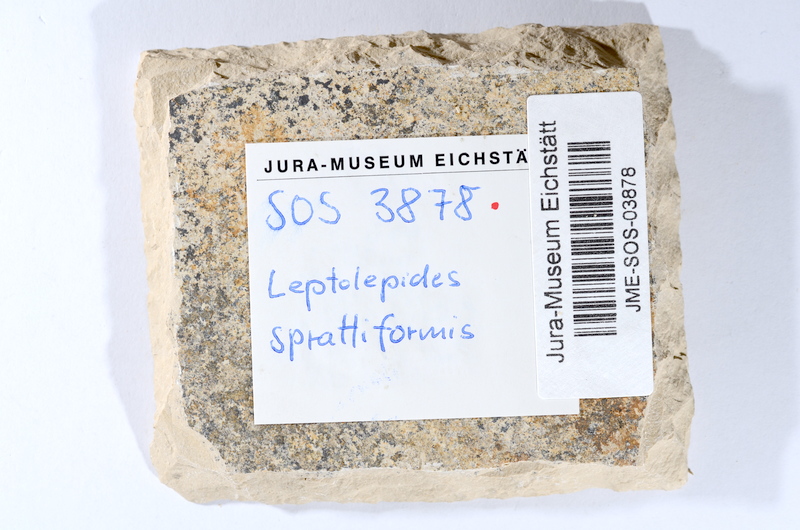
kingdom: Animalia
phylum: Chordata
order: Salmoniformes
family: Orthogonikleithridae
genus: Leptolepides
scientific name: Leptolepides sprattiformis
